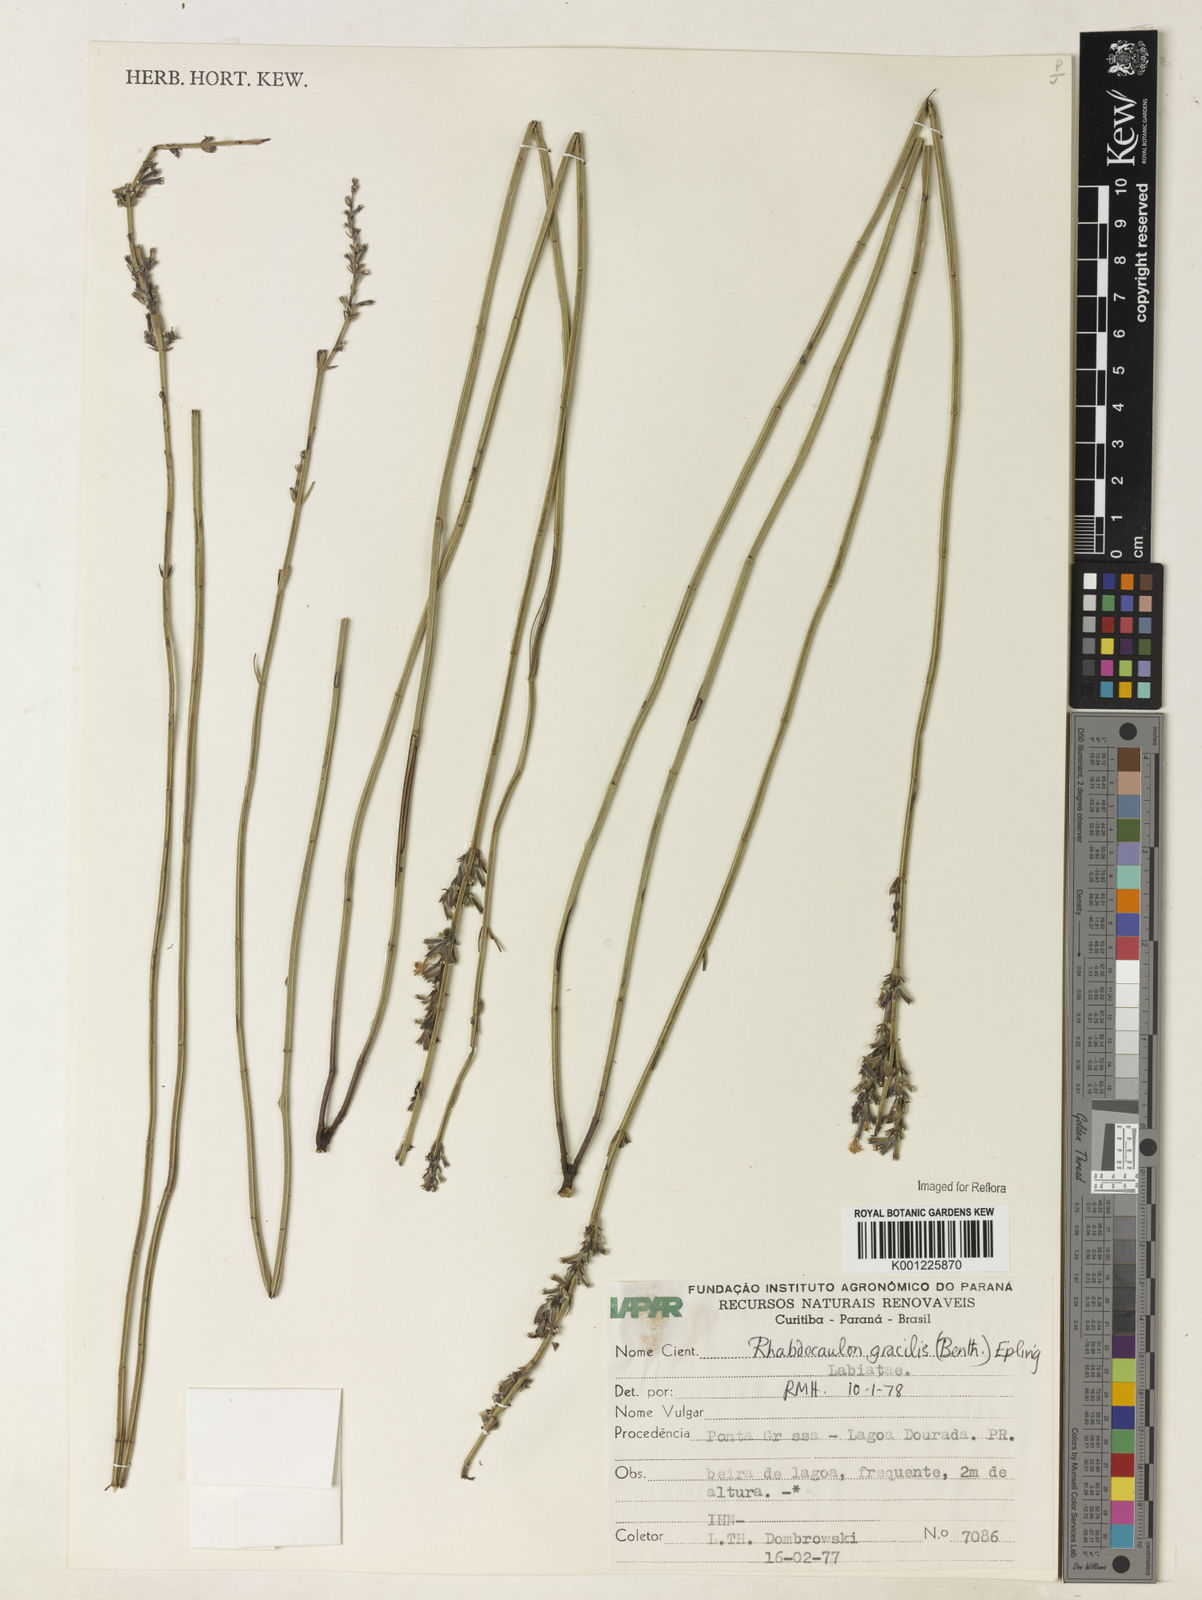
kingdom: Plantae
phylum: Tracheophyta
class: Magnoliopsida
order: Lamiales
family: Lamiaceae
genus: Rhabdocaulon
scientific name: Rhabdocaulon gracile
